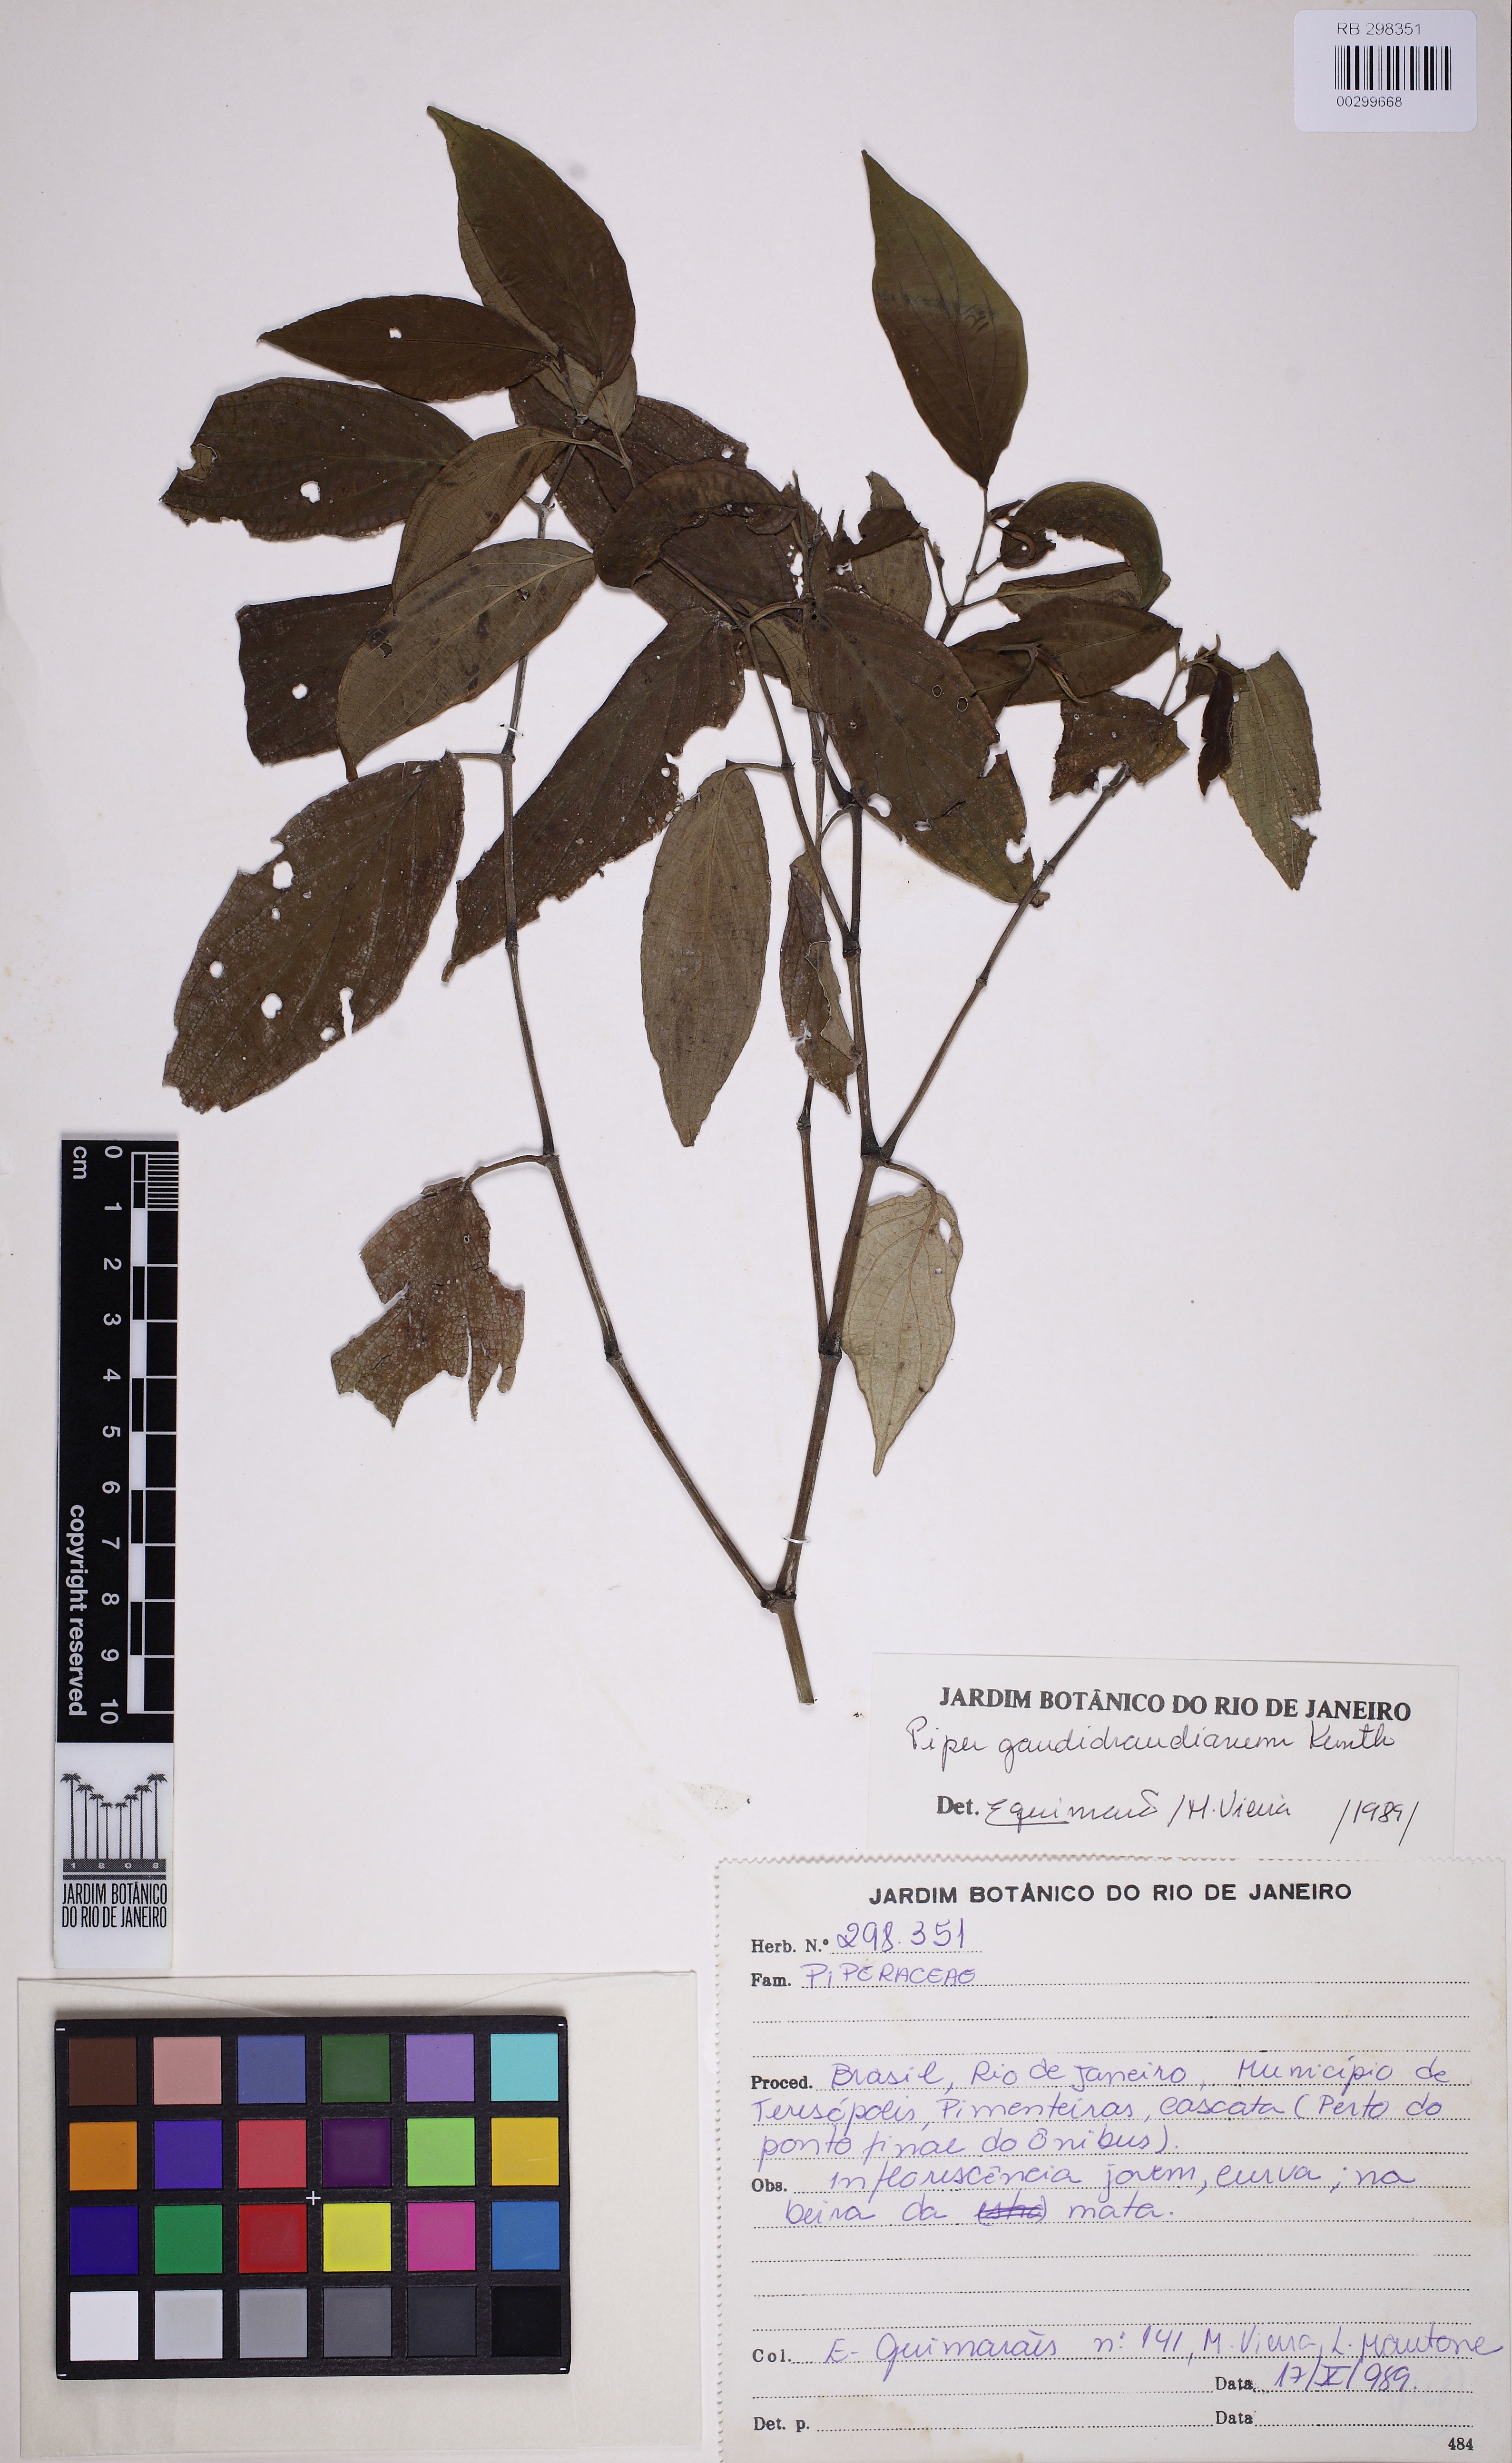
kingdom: Plantae
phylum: Tracheophyta
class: Magnoliopsida
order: Piperales
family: Piperaceae
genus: Piper
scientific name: Piper gaudichaudianum
